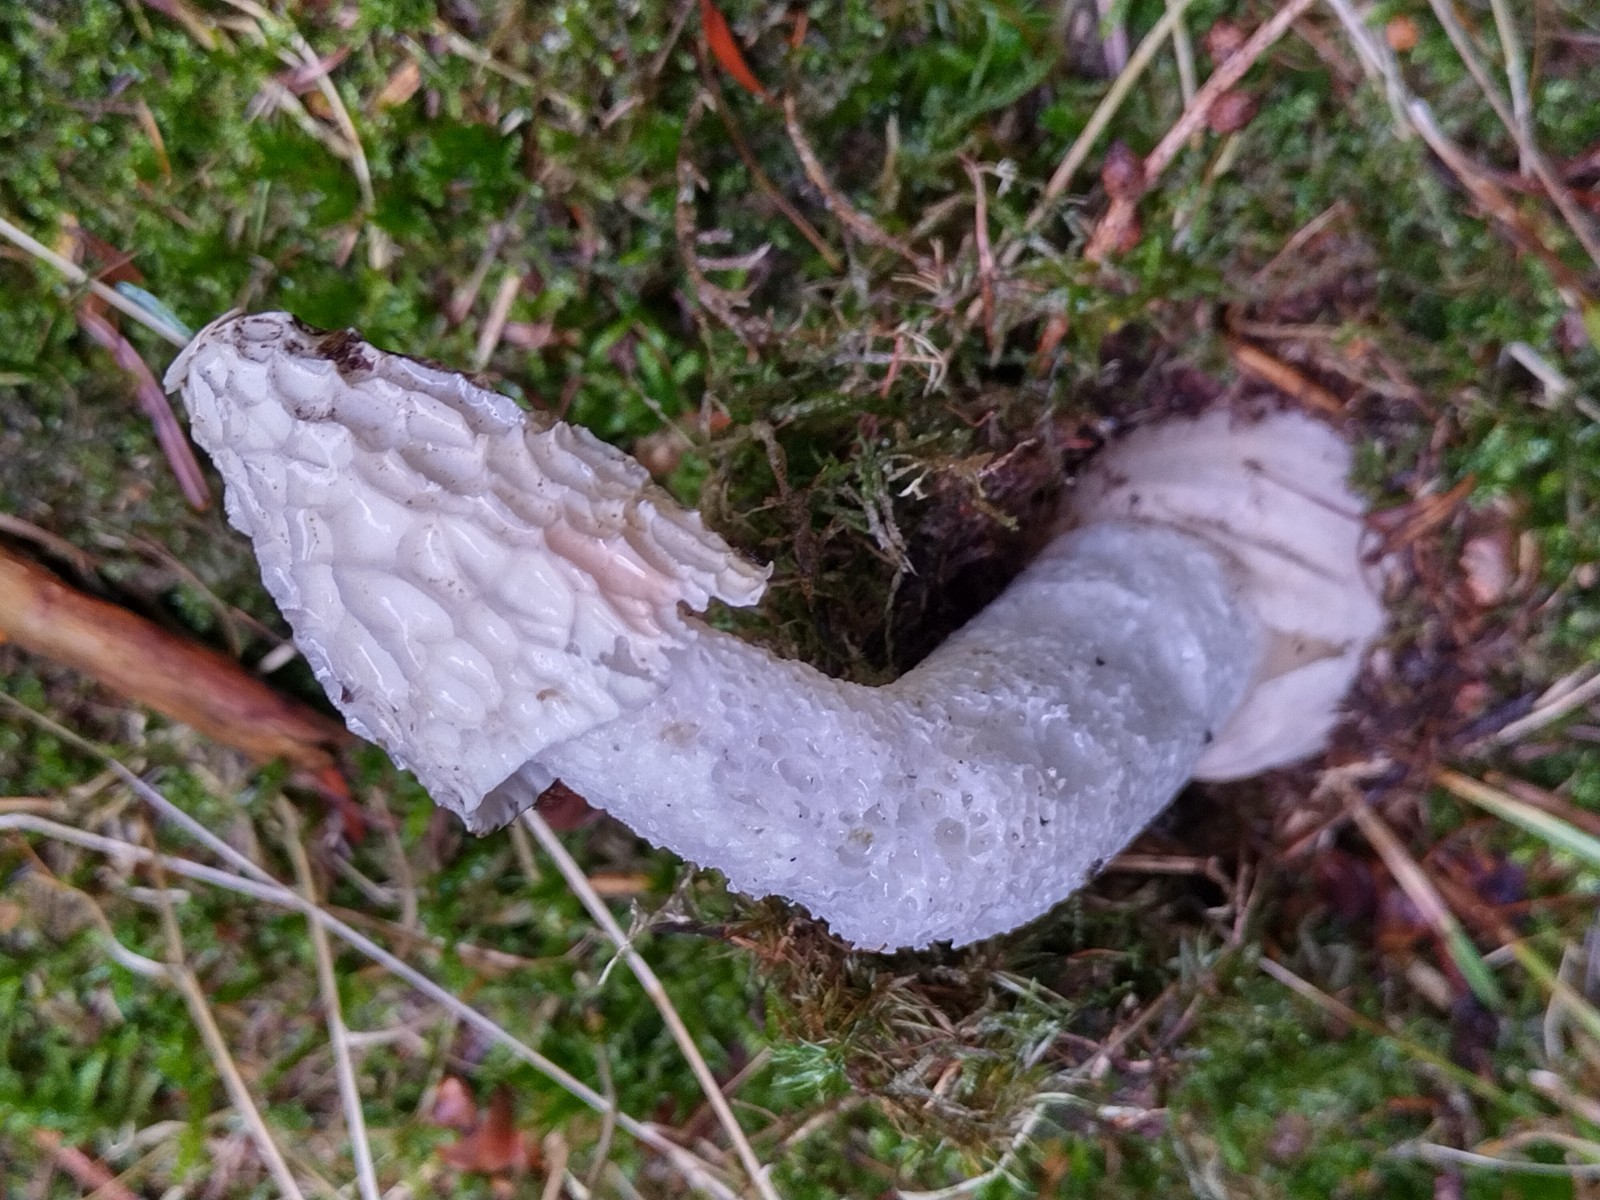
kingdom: Fungi
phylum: Basidiomycota
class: Agaricomycetes
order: Phallales
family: Phallaceae
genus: Phallus
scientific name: Phallus impudicus
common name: almindelig stinksvamp
